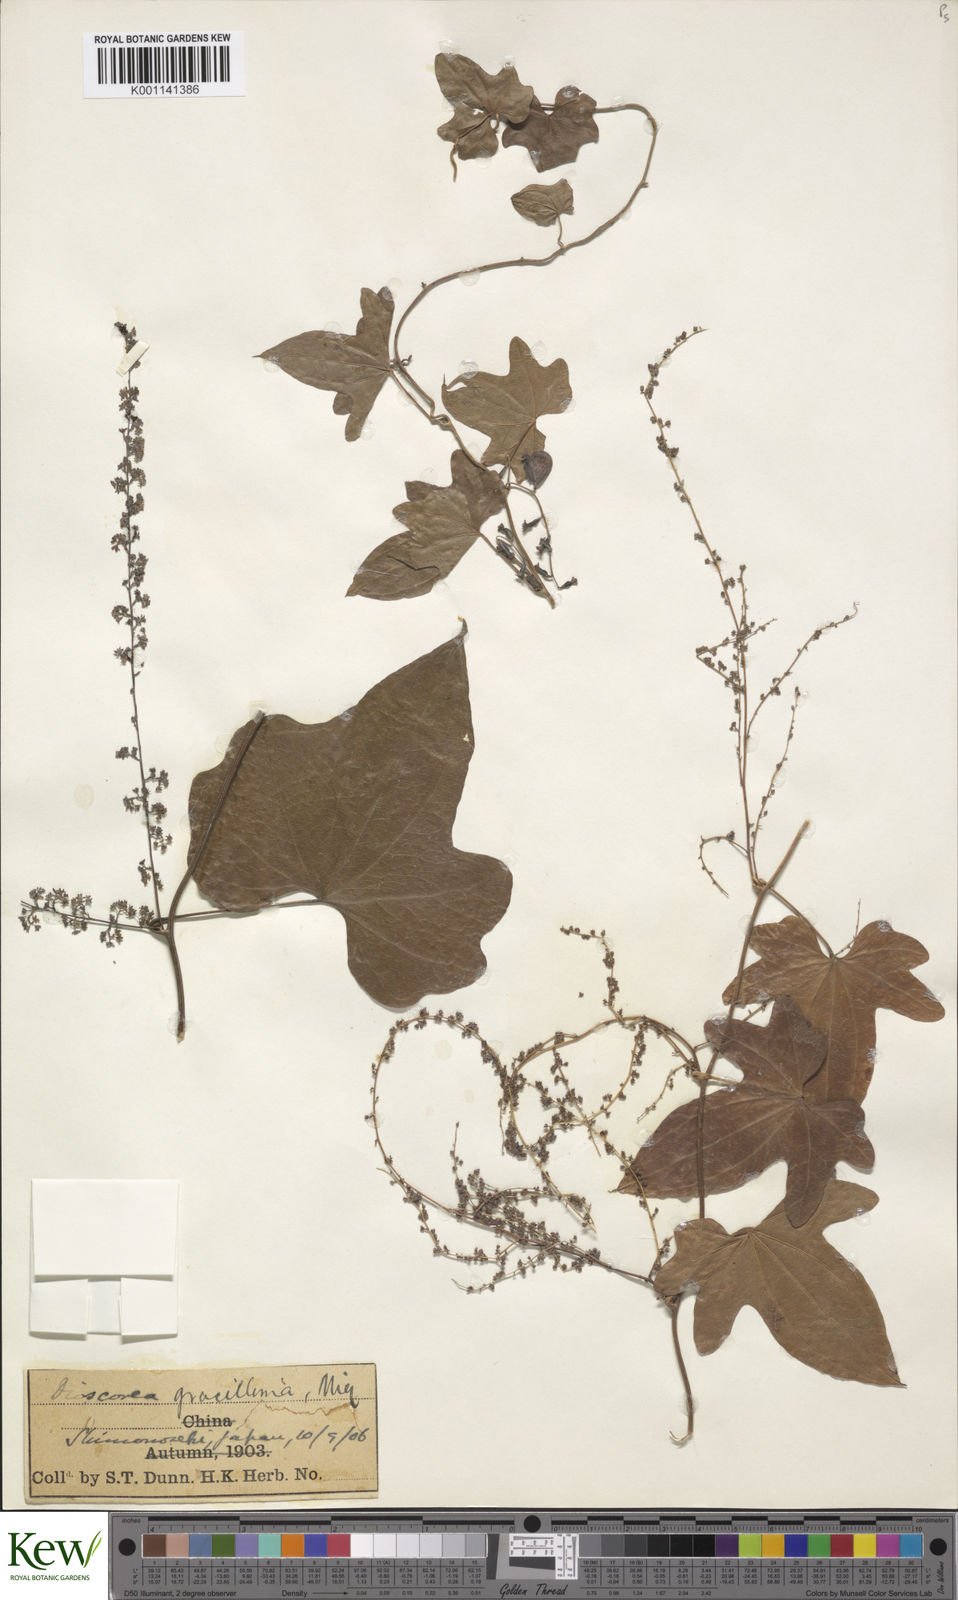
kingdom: Plantae
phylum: Tracheophyta
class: Liliopsida
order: Dioscoreales
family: Dioscoreaceae
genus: Dioscorea
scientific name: Dioscorea gracillima
